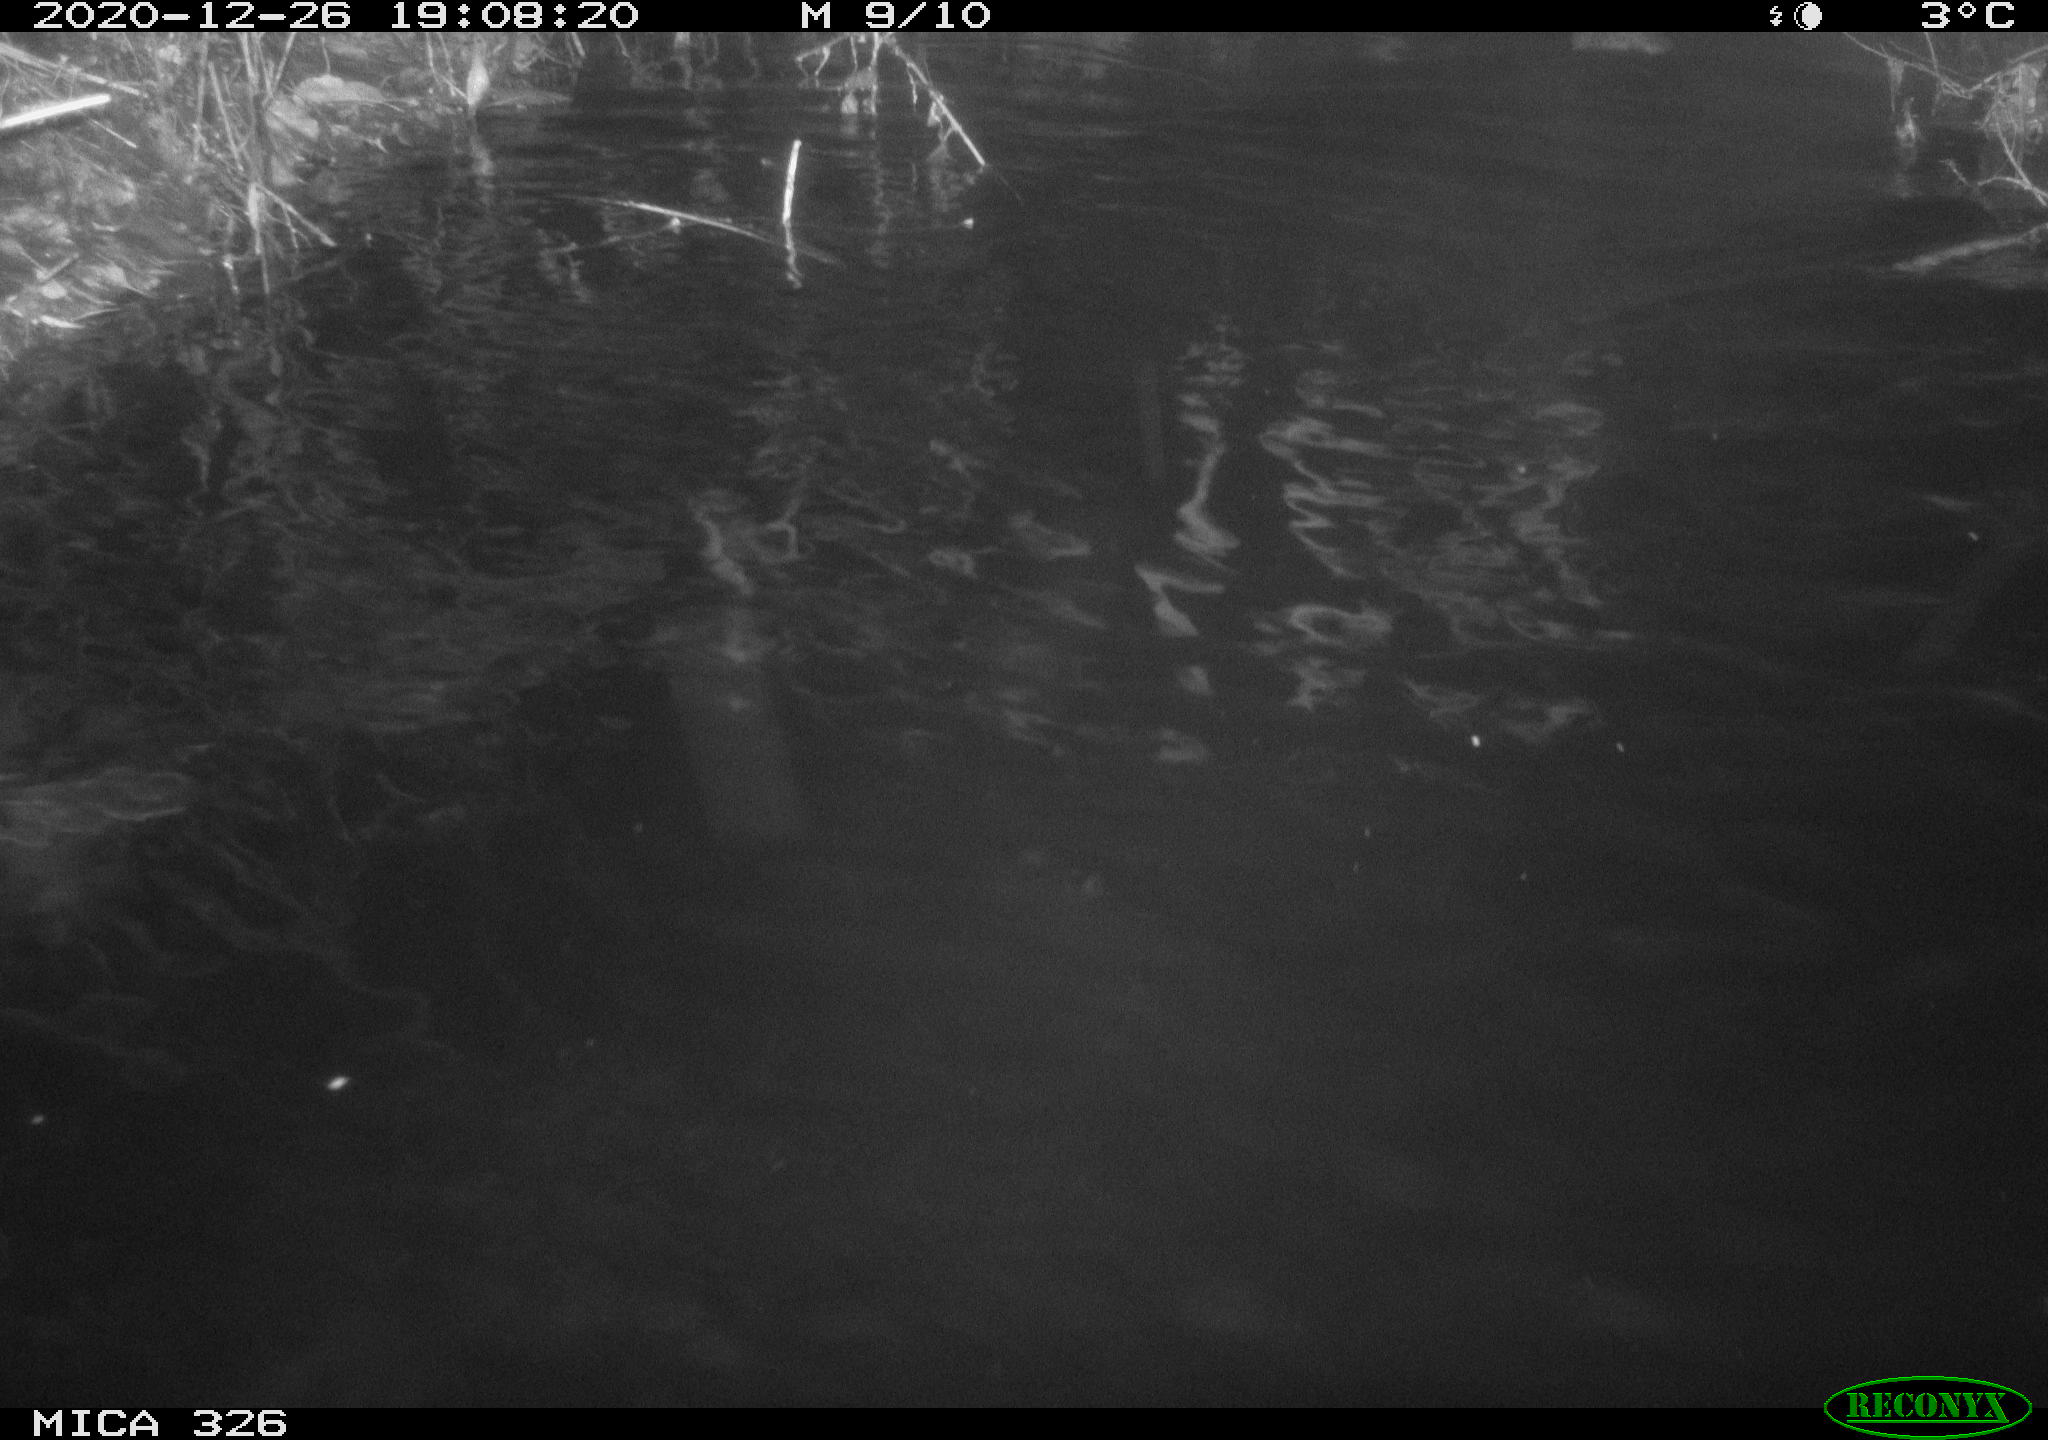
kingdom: Animalia
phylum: Chordata
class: Mammalia
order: Rodentia
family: Cricetidae
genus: Ondatra
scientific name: Ondatra zibethicus
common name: Muskrat
